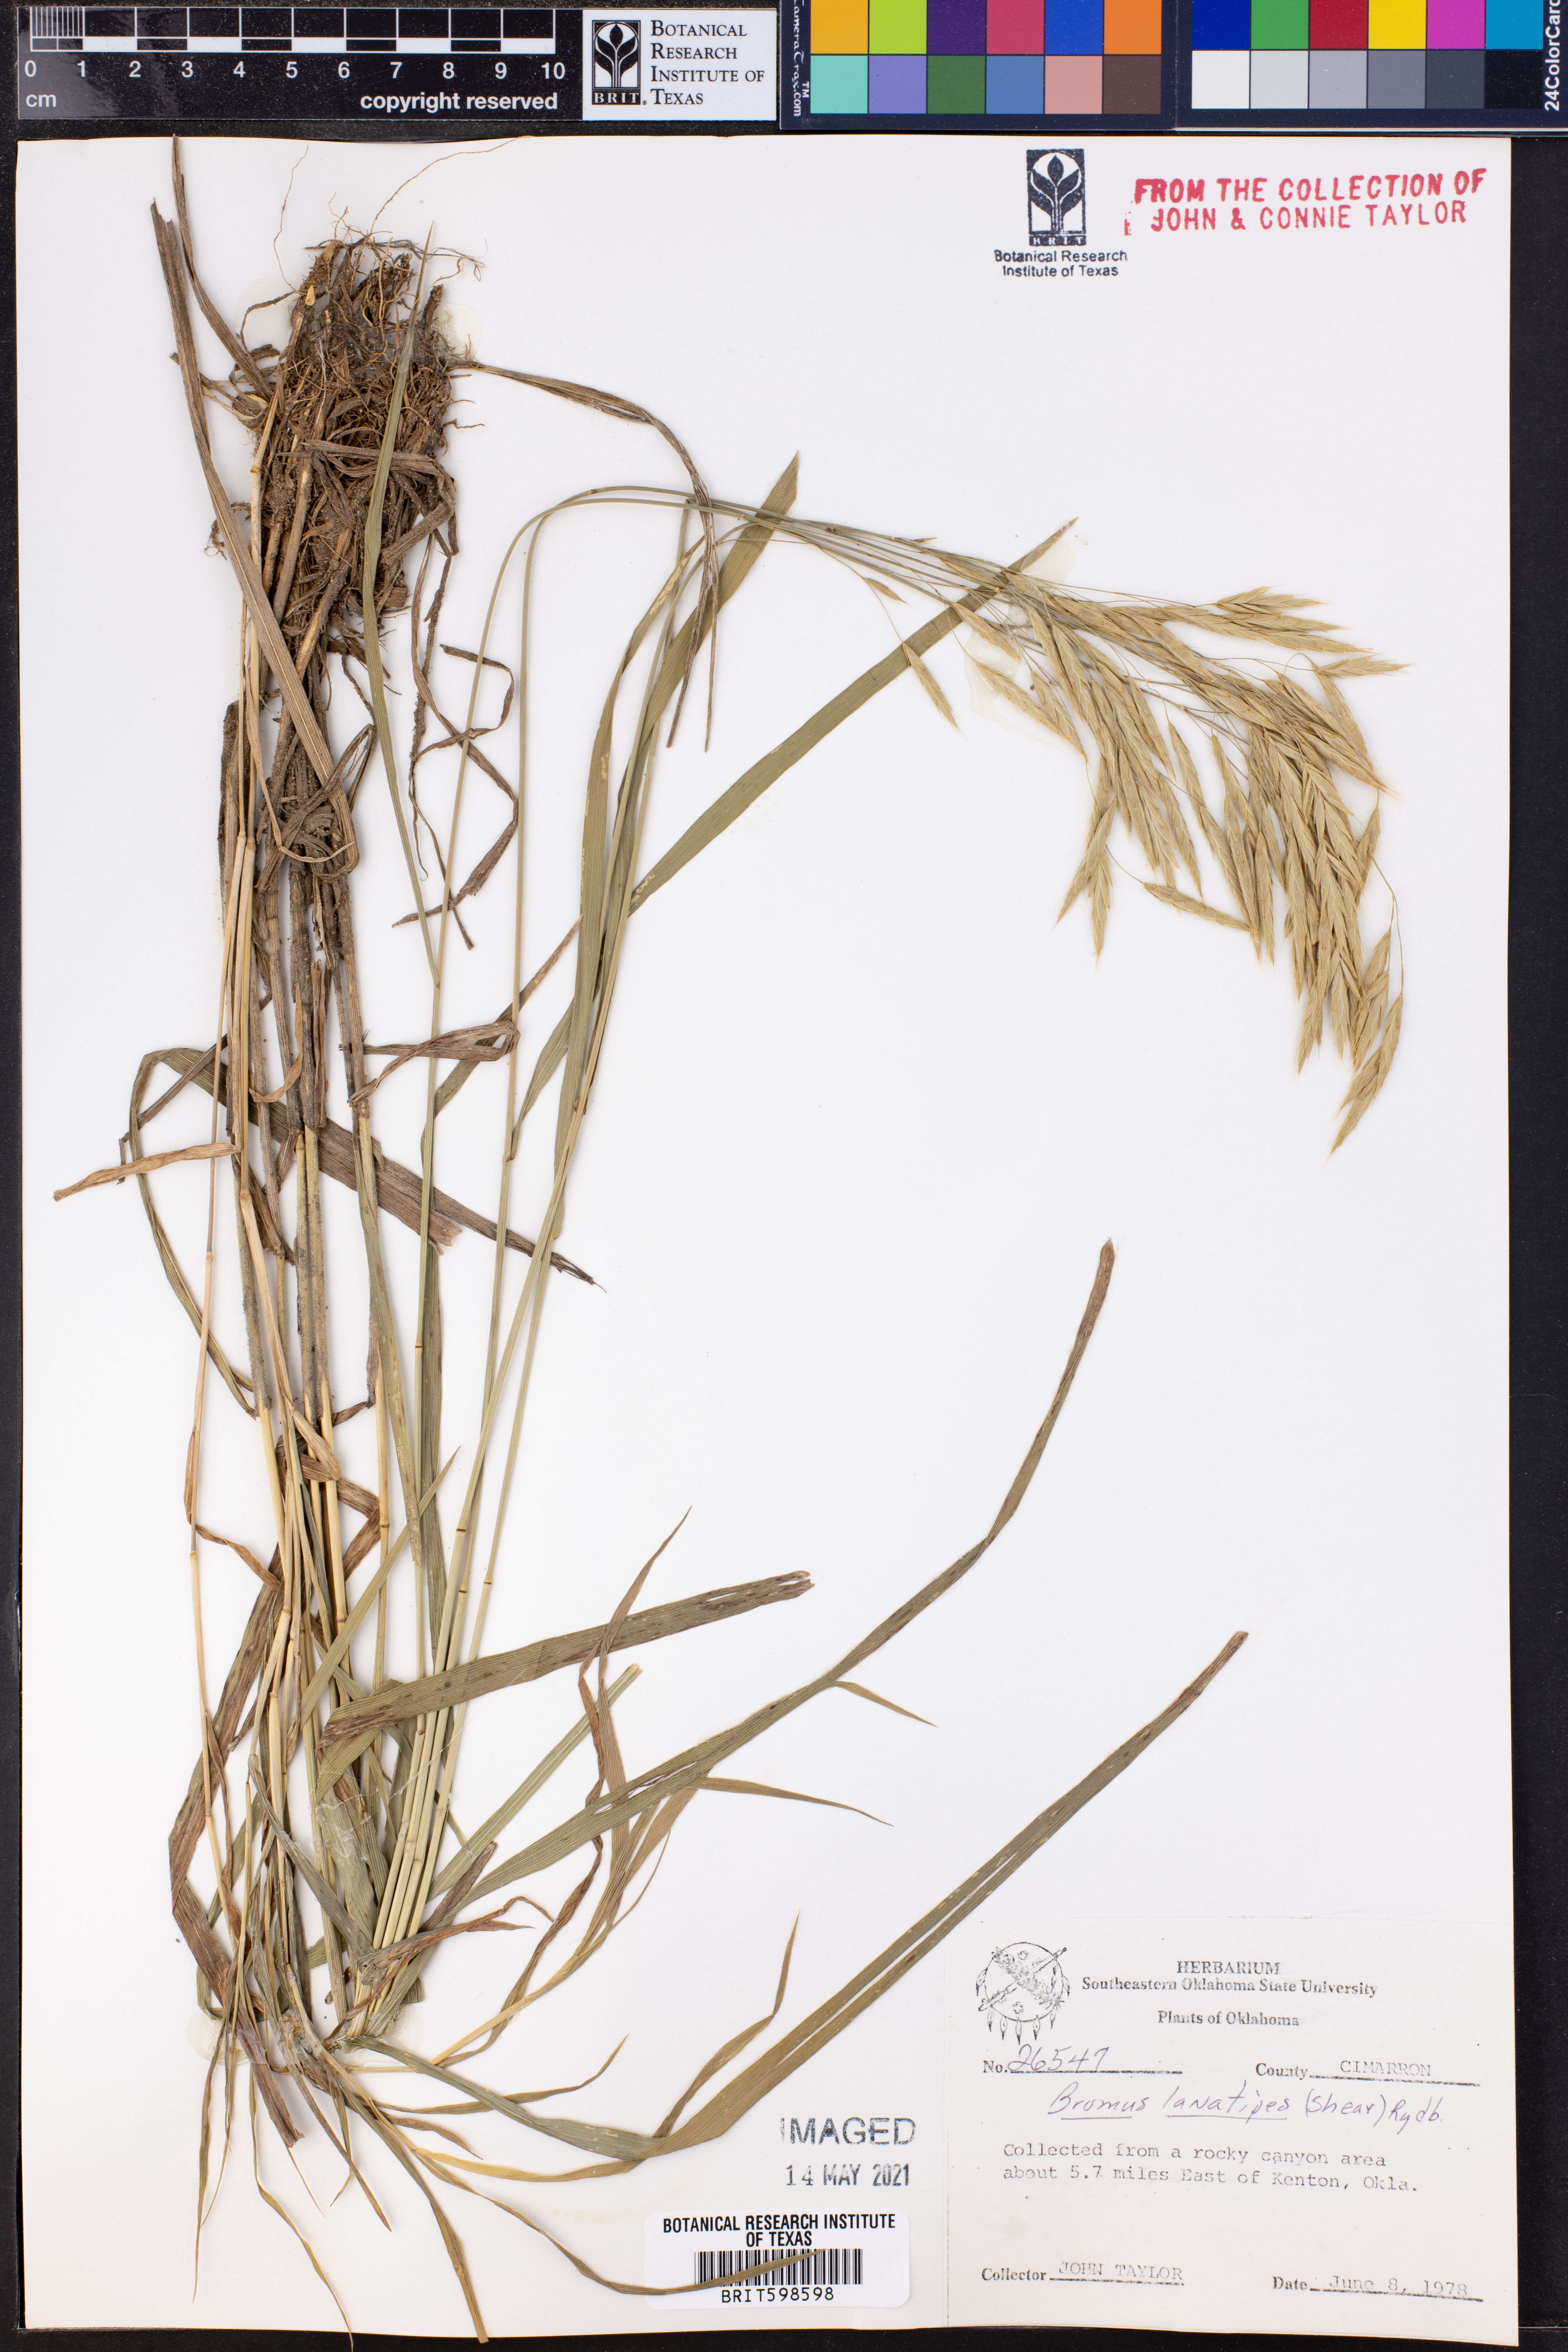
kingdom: Plantae
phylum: Tracheophyta
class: Liliopsida
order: Poales
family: Poaceae
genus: Bromus
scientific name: Bromus lanatipes
